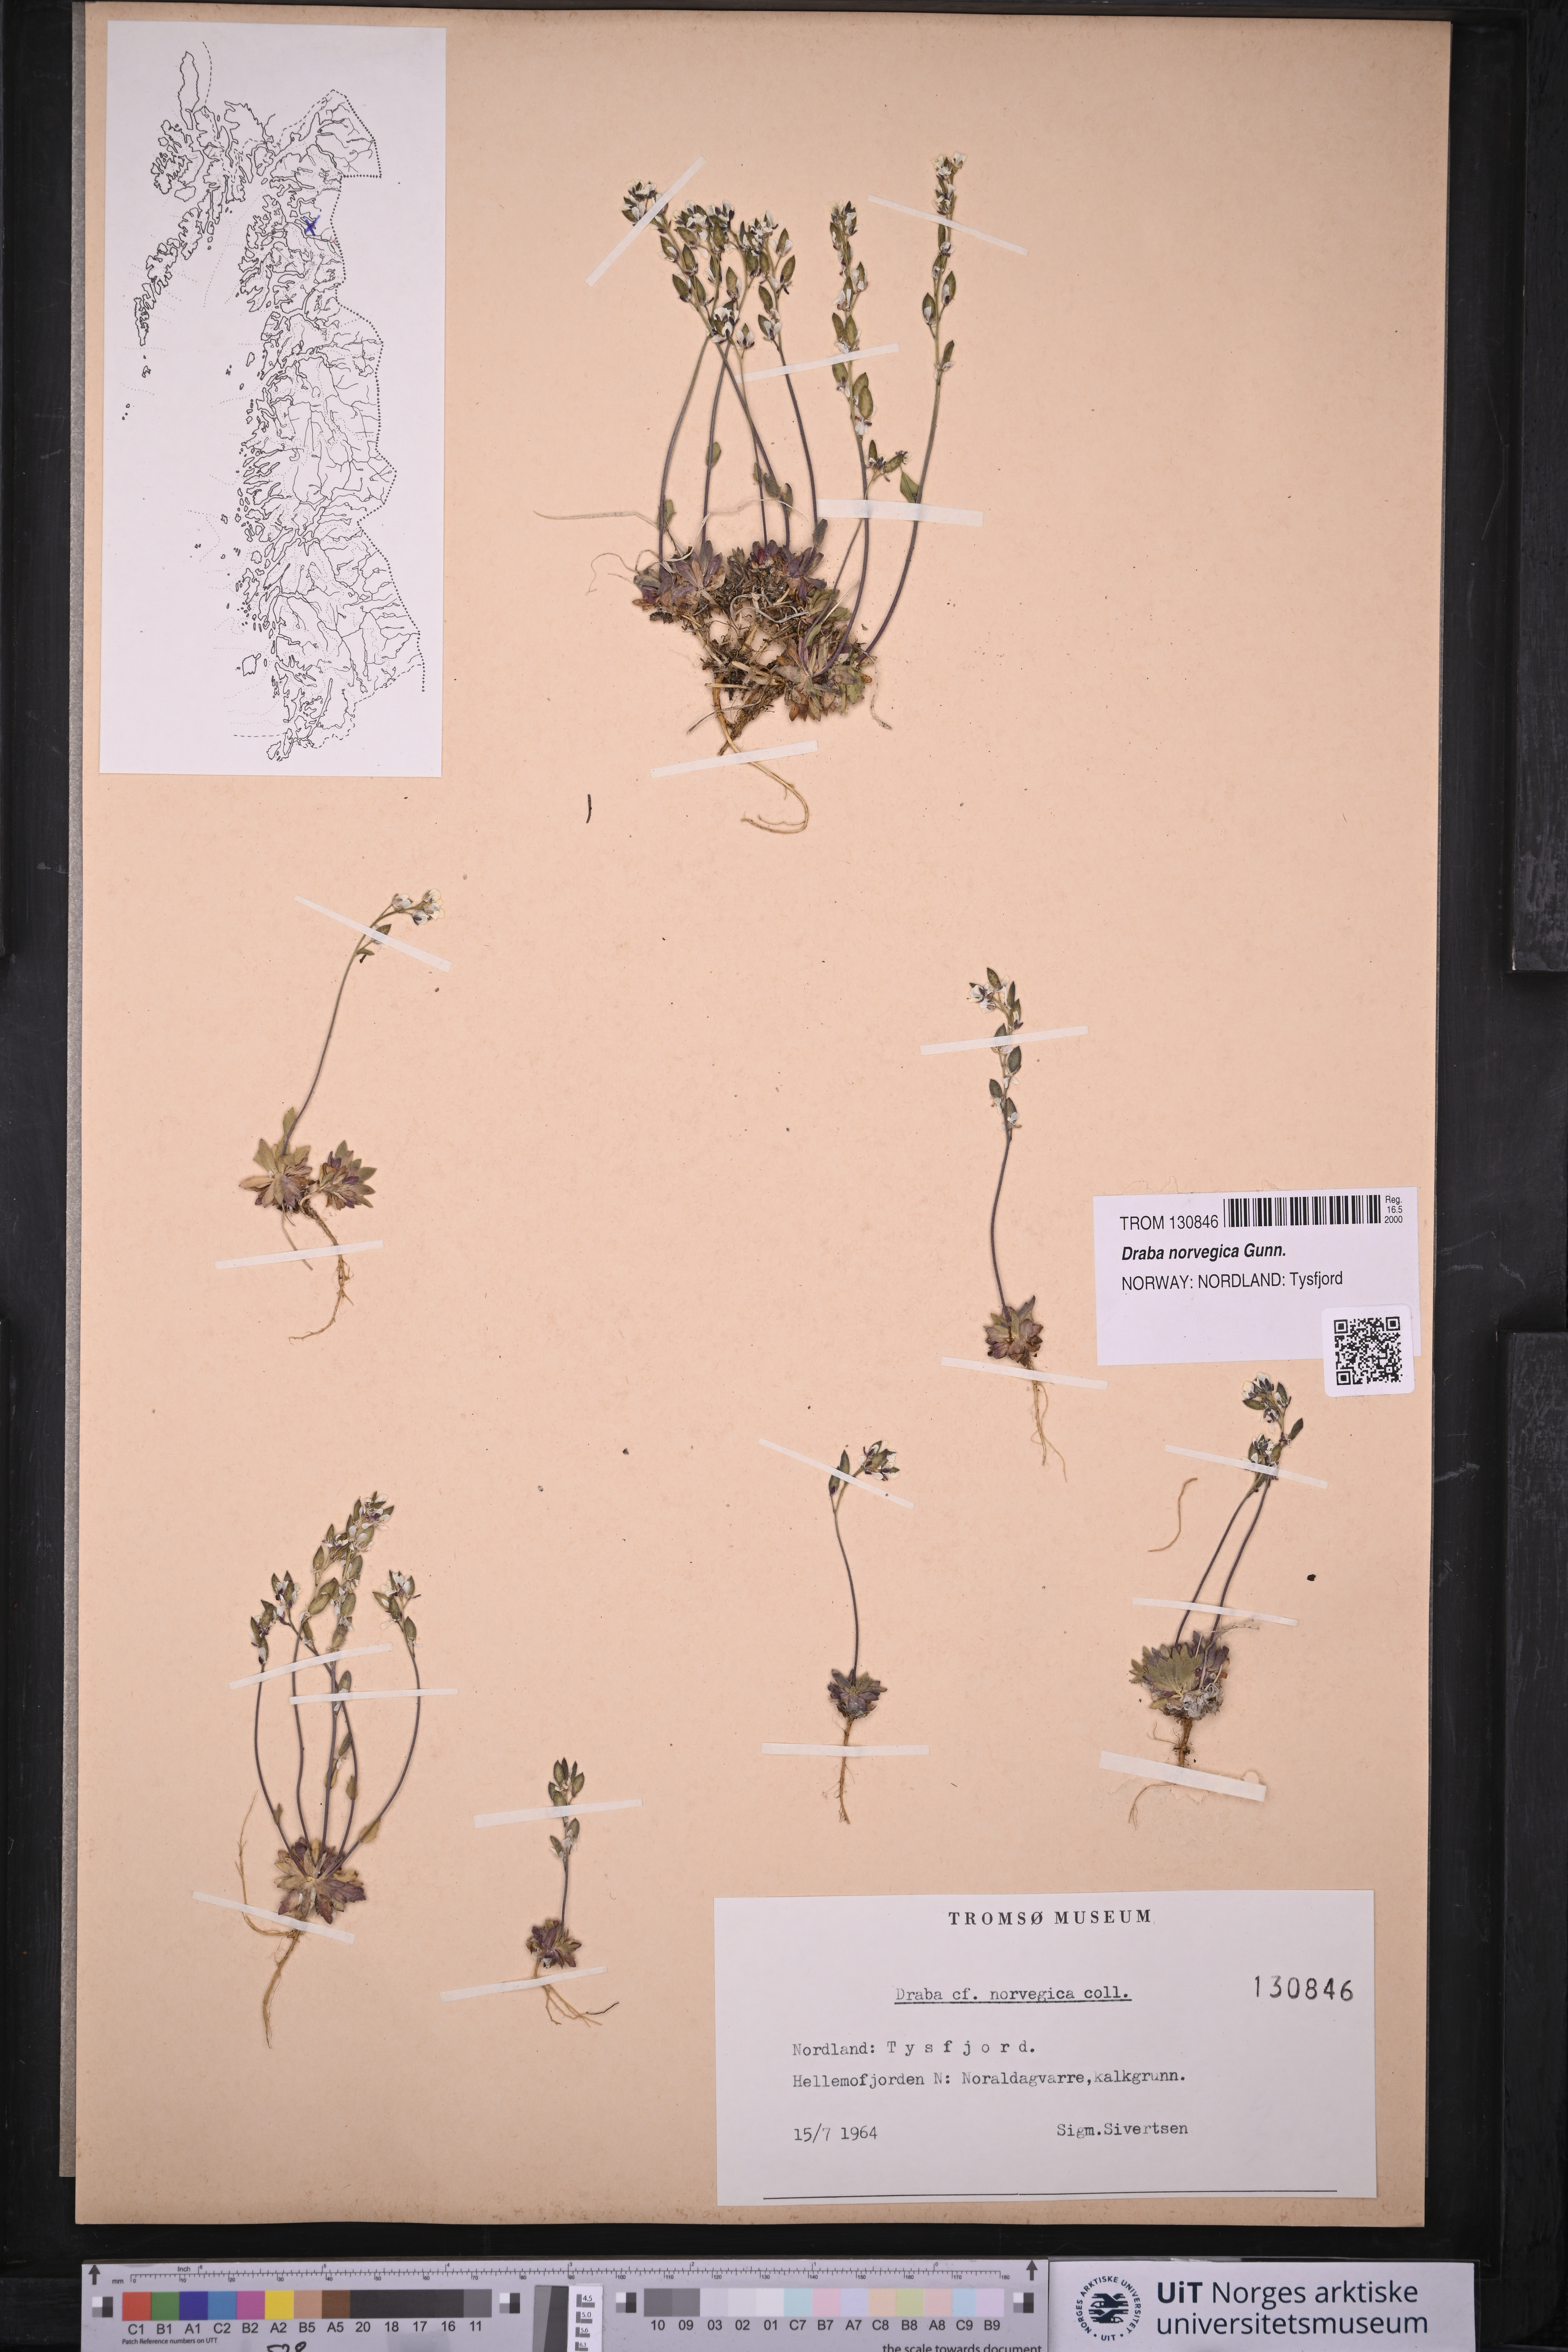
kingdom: Plantae
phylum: Tracheophyta
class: Magnoliopsida
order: Brassicales
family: Brassicaceae
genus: Draba
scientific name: Draba norvegica
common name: Rock whitlowgrass
